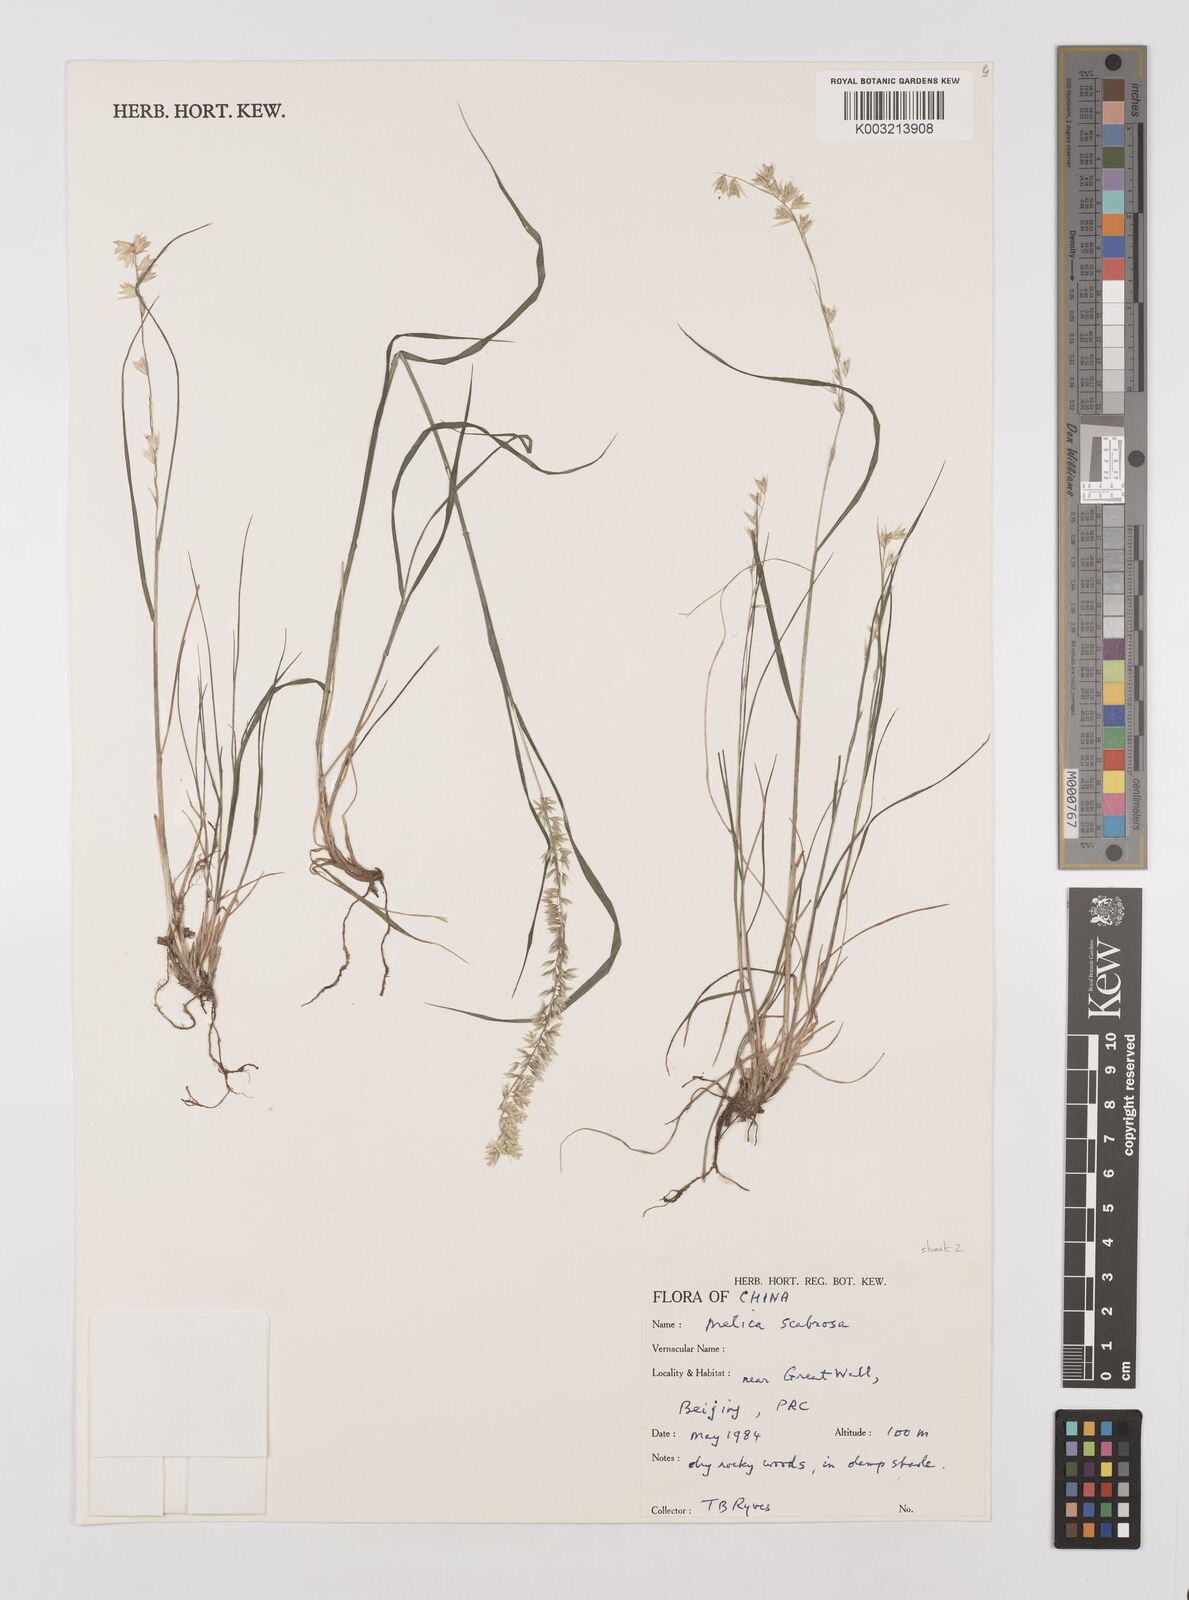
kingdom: Plantae
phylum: Tracheophyta
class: Liliopsida
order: Poales
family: Poaceae
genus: Melica
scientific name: Melica scabrosa
